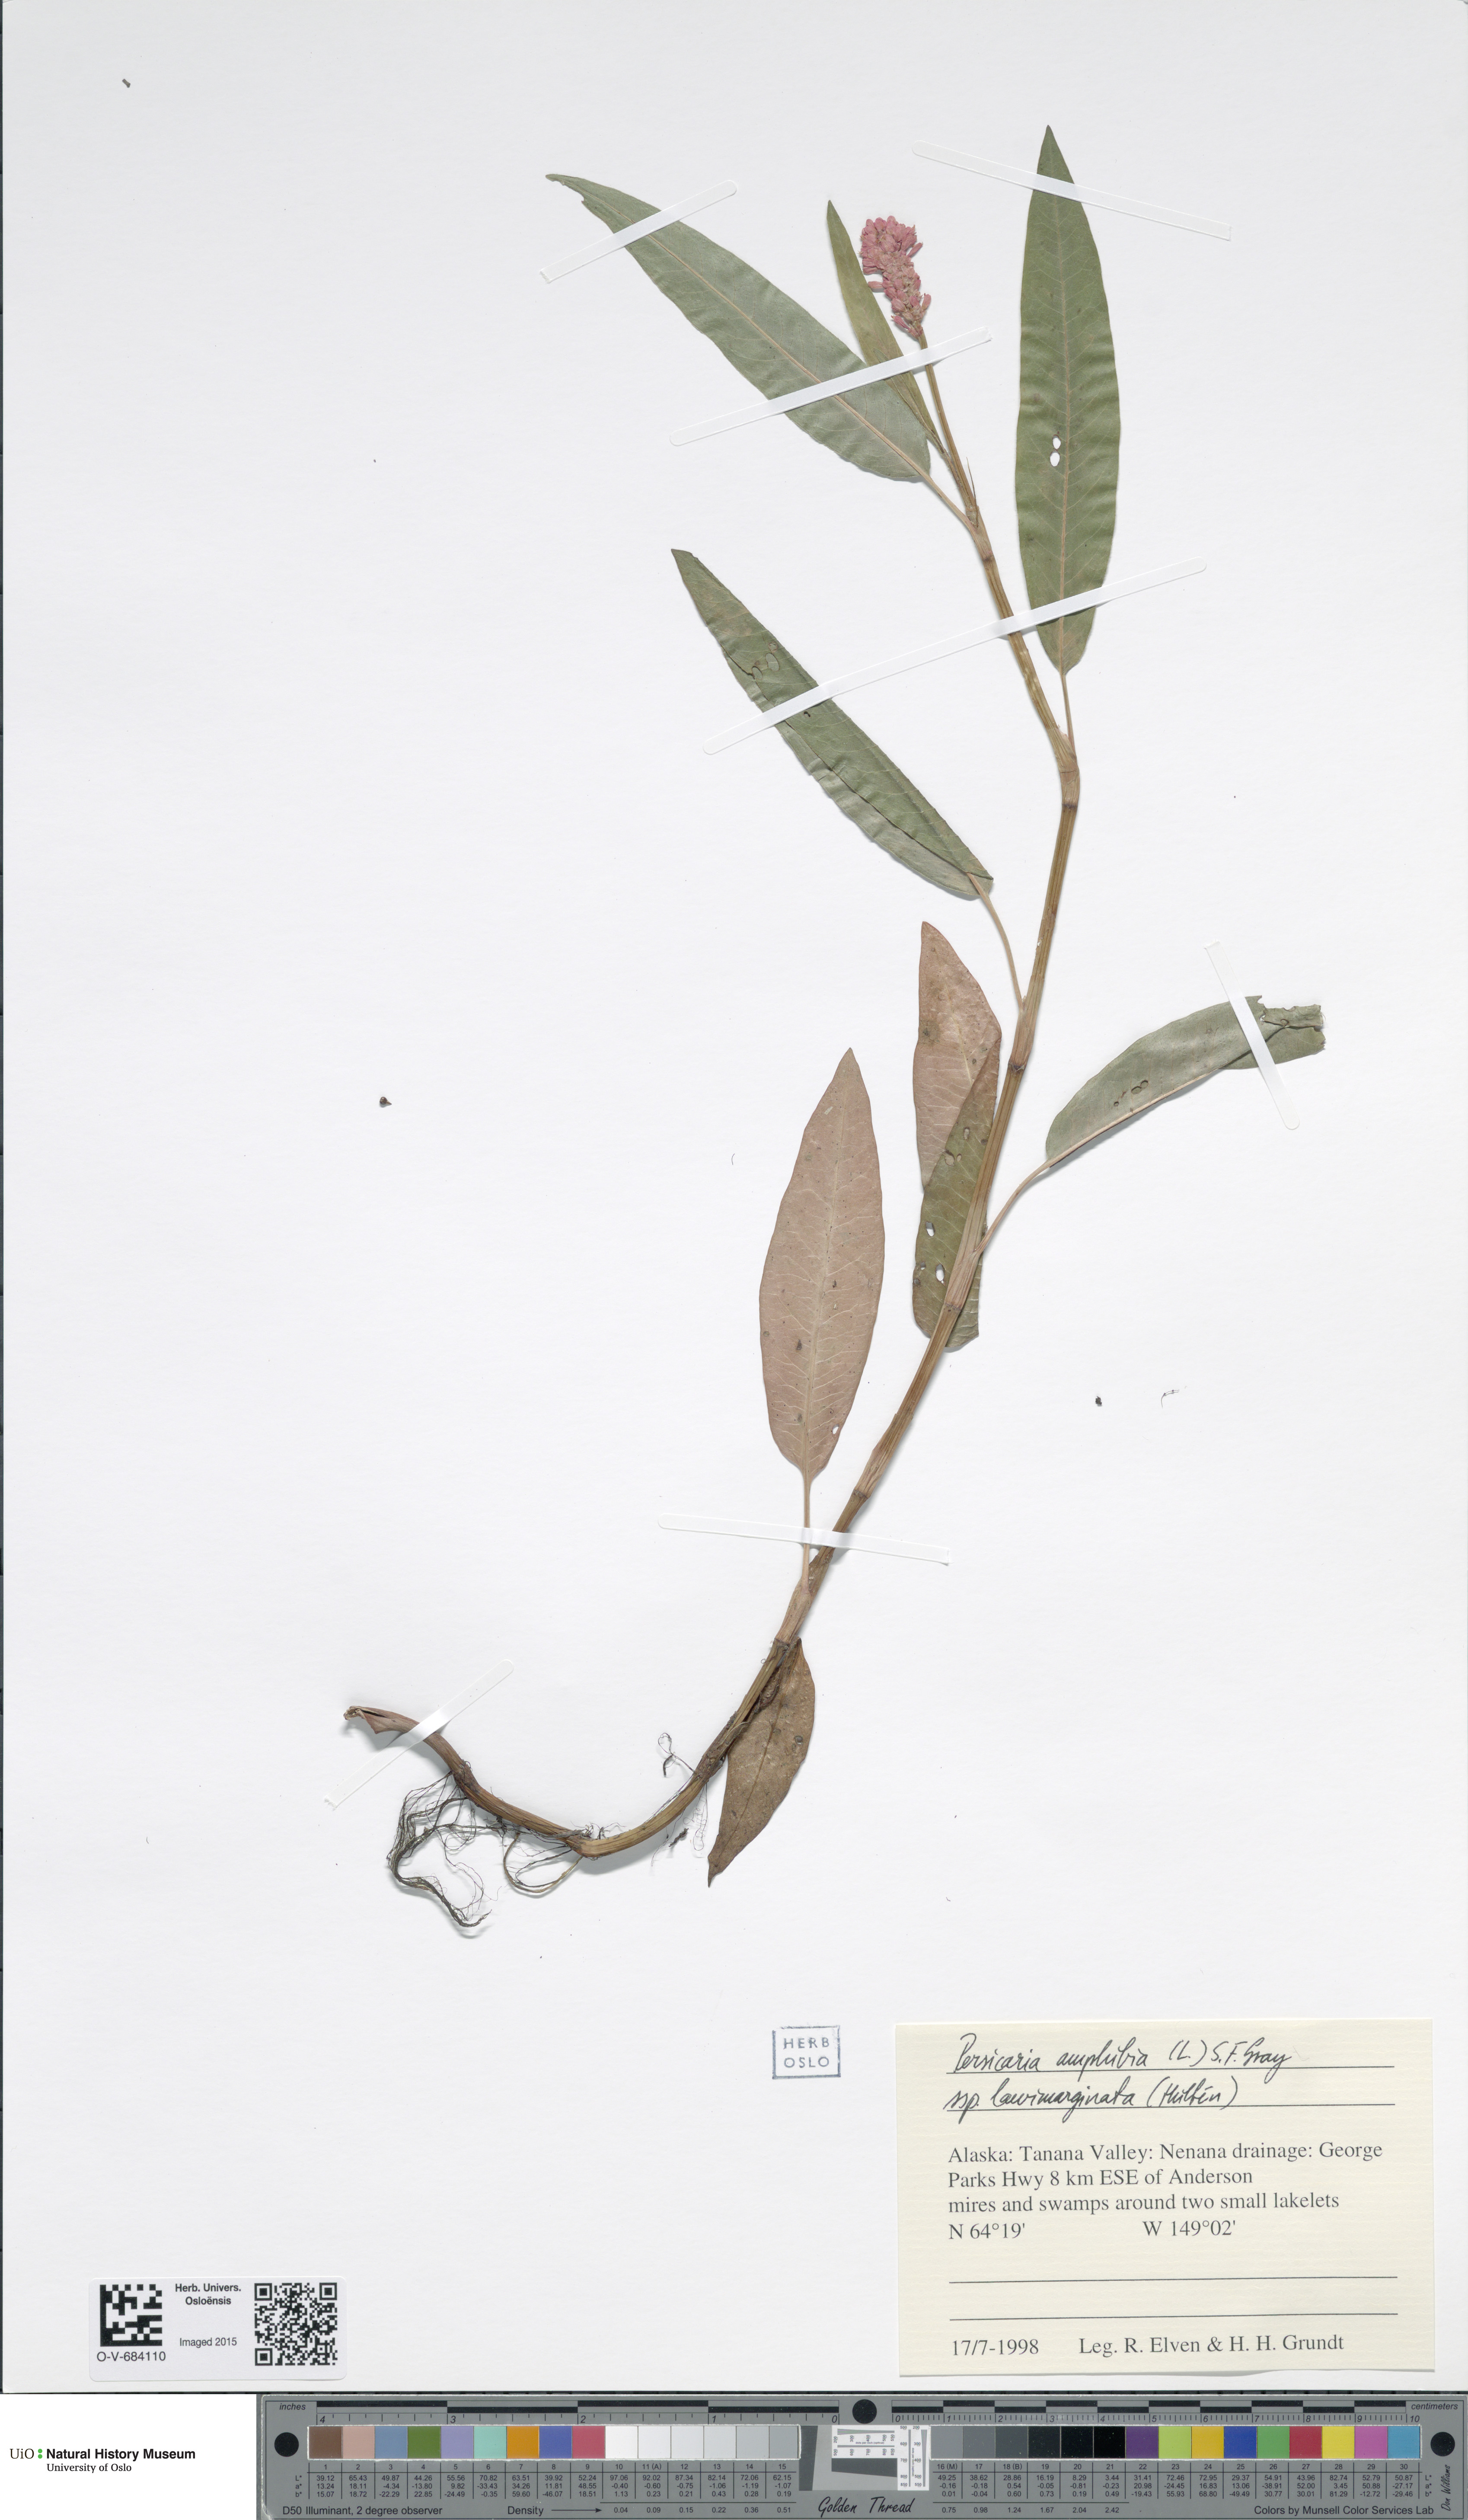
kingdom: Plantae
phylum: Tracheophyta
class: Magnoliopsida
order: Caryophyllales
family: Polygonaceae
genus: Persicaria
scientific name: Persicaria amphibia
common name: Amphibious bistort
